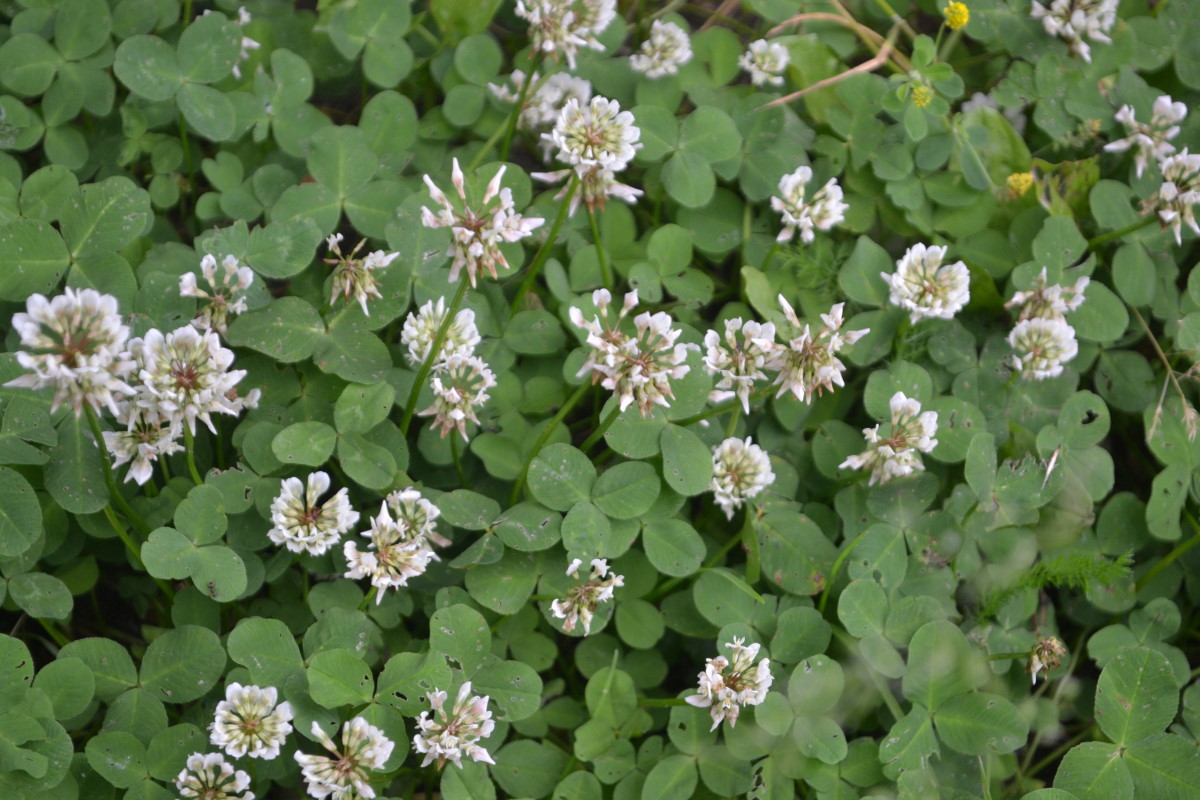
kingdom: Plantae
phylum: Tracheophyta
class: Magnoliopsida
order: Fabales
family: Fabaceae
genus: Trifolium
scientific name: Trifolium repens
